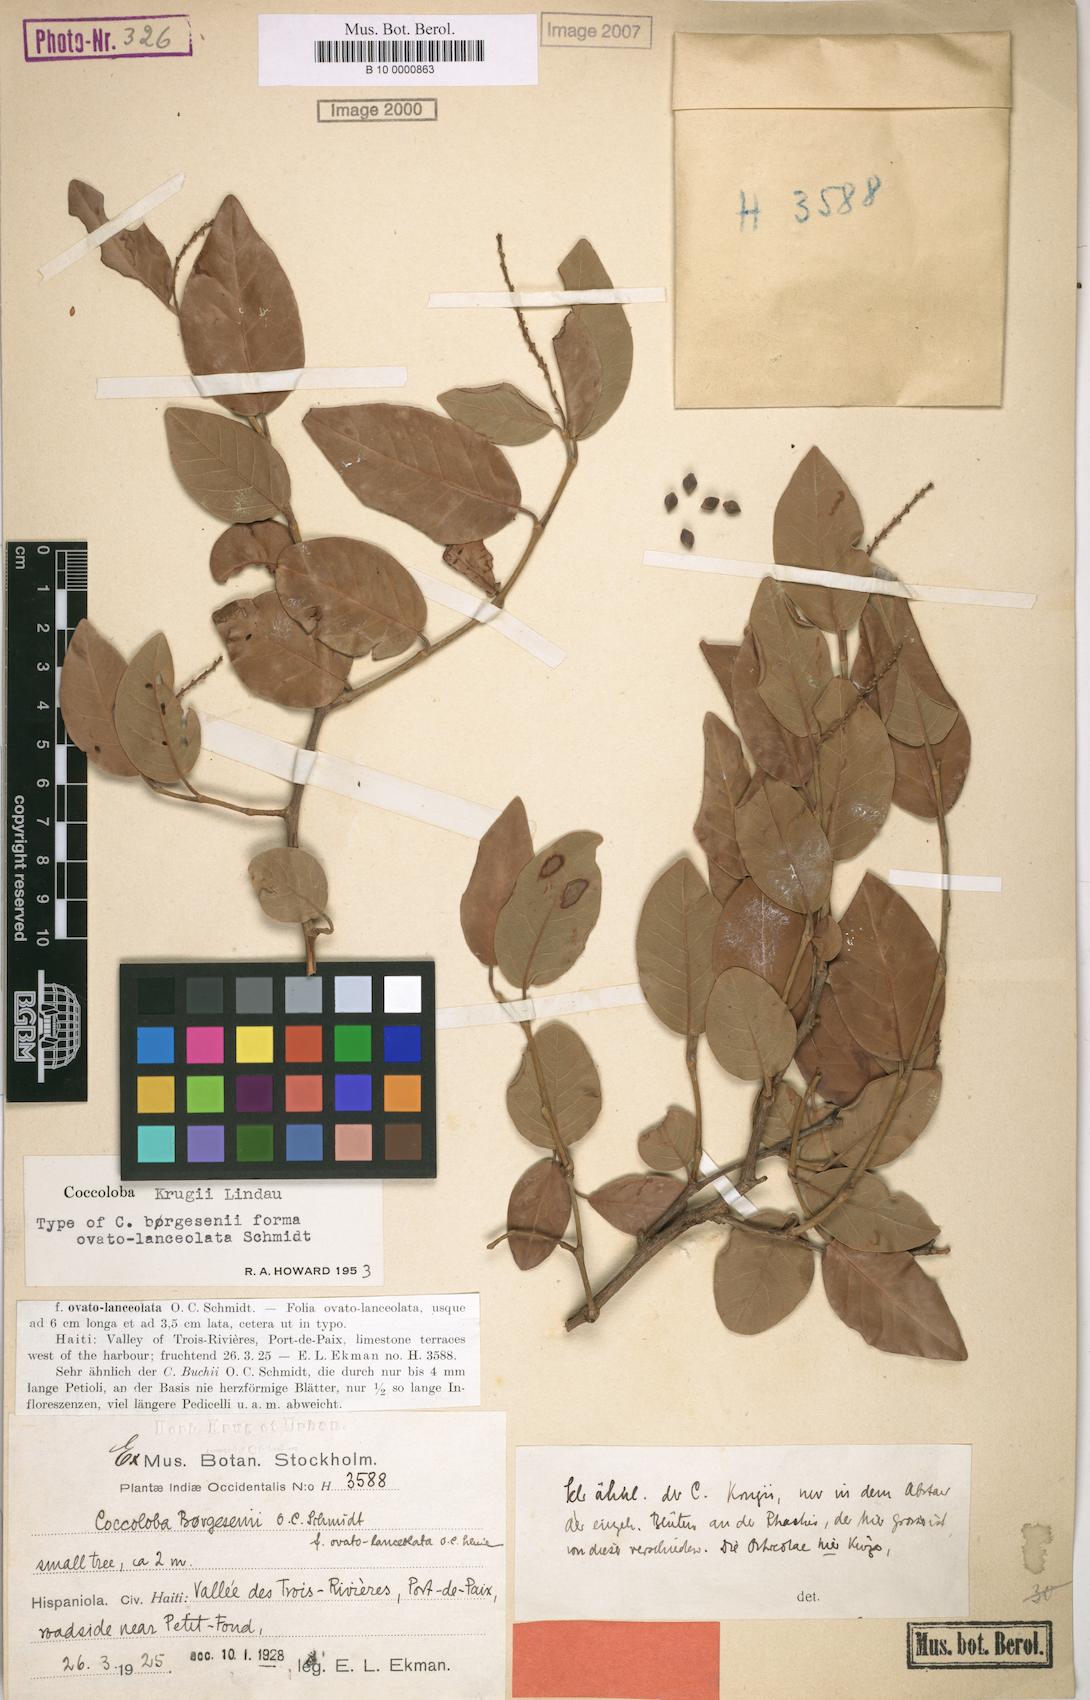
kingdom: Plantae
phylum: Tracheophyta
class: Magnoliopsida
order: Caryophyllales
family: Polygonaceae
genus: Coccoloba
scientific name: Coccoloba krugii
